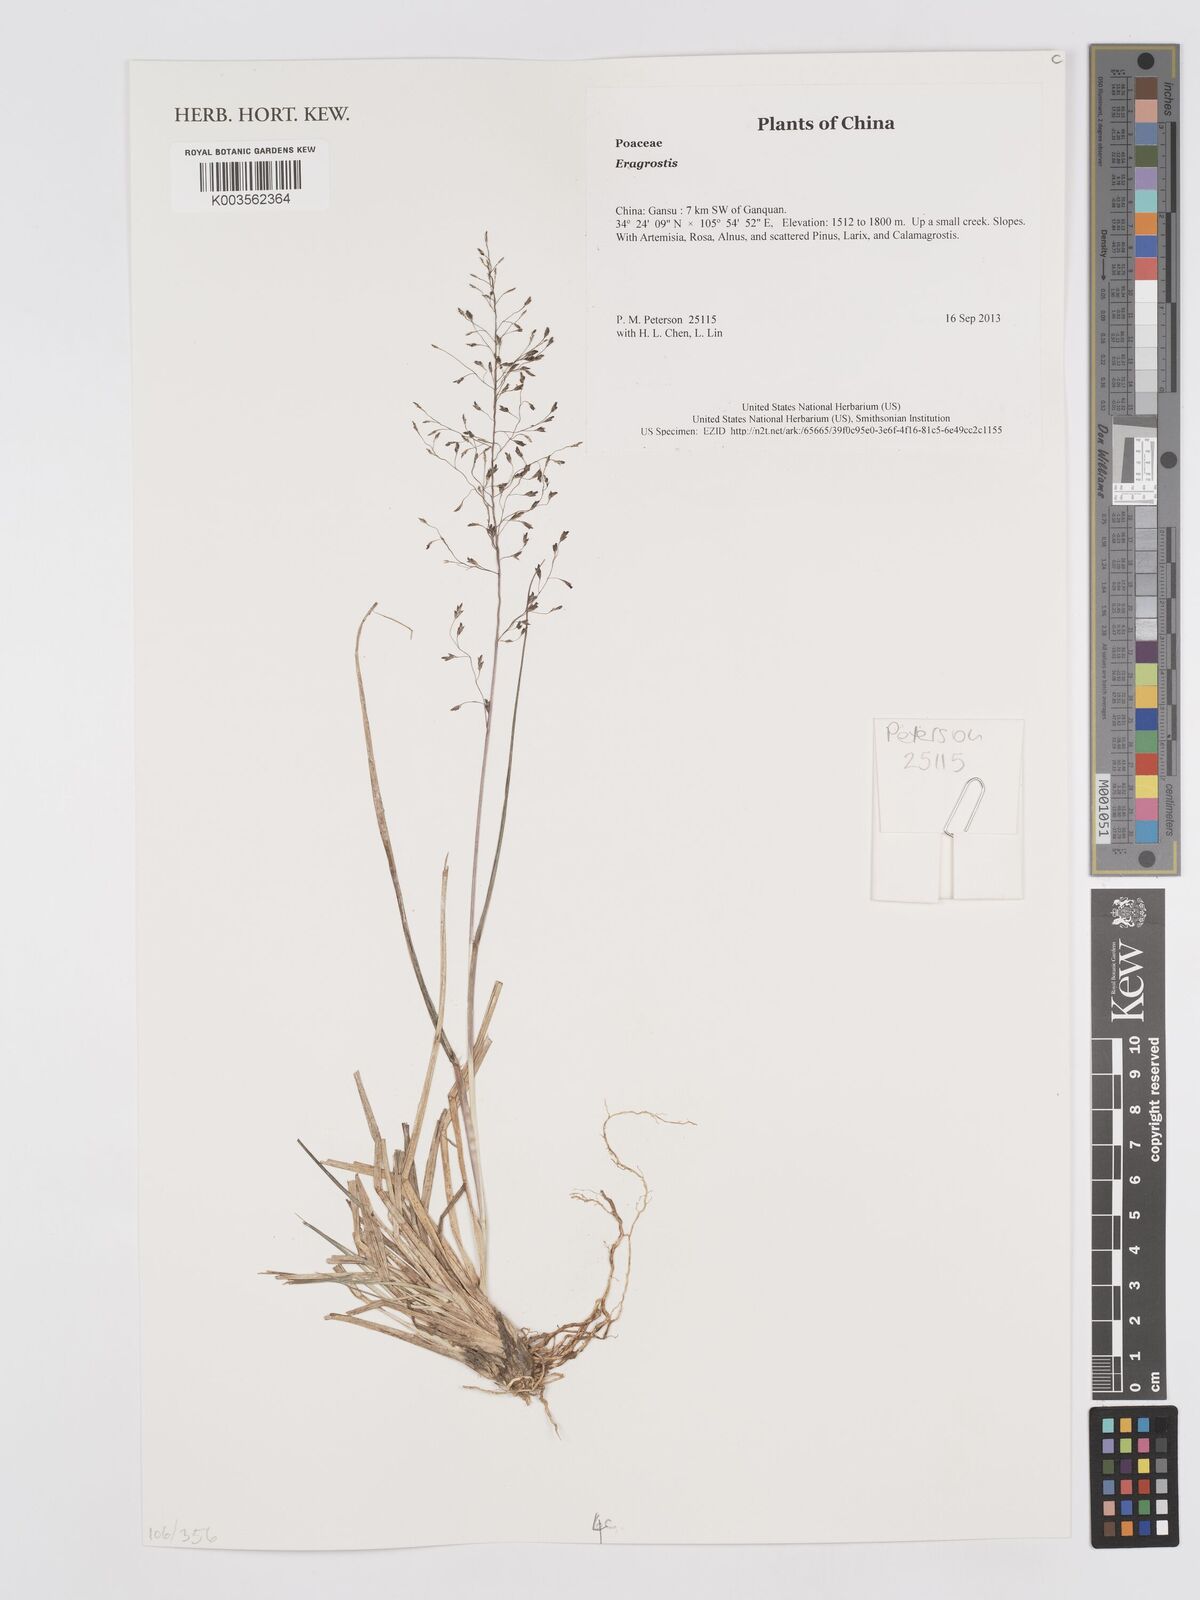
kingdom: Plantae
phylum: Tracheophyta
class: Liliopsida
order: Poales
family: Poaceae
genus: Eragrostis
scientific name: Eragrostis
